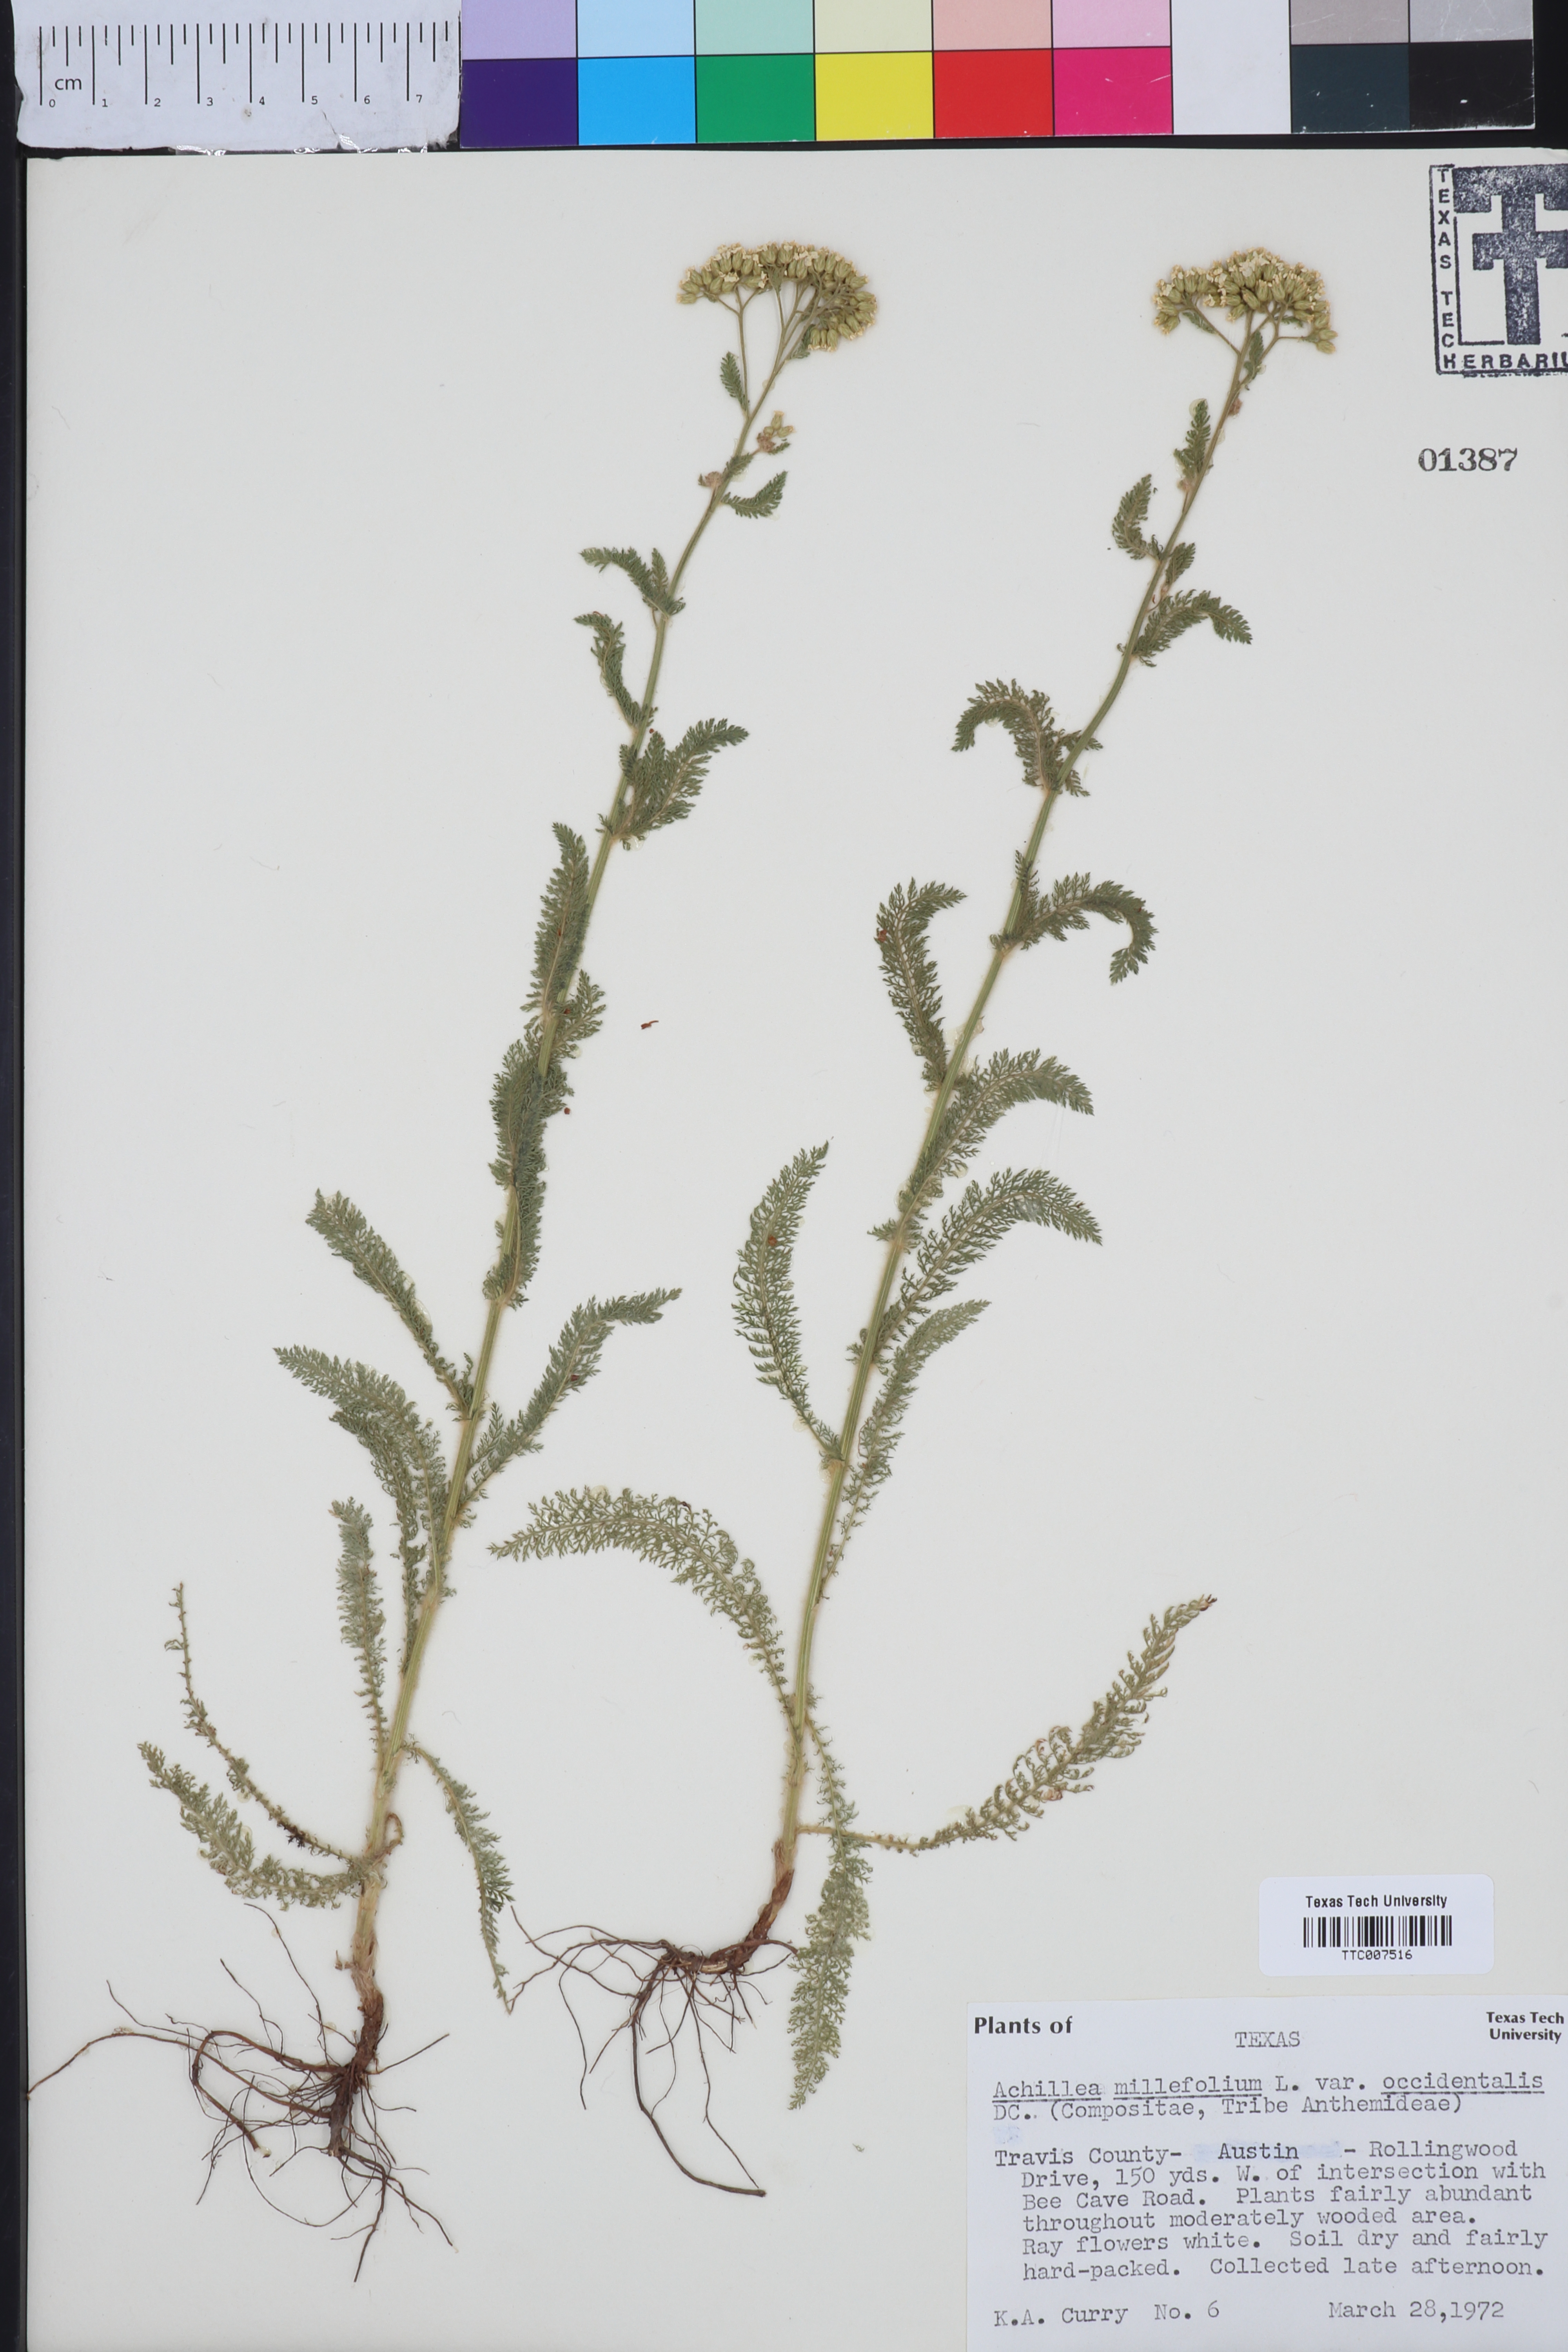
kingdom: Plantae
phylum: Tracheophyta
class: Magnoliopsida
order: Asterales
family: Asteraceae
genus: Achillea
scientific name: Achillea millefolium
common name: Yarrow
